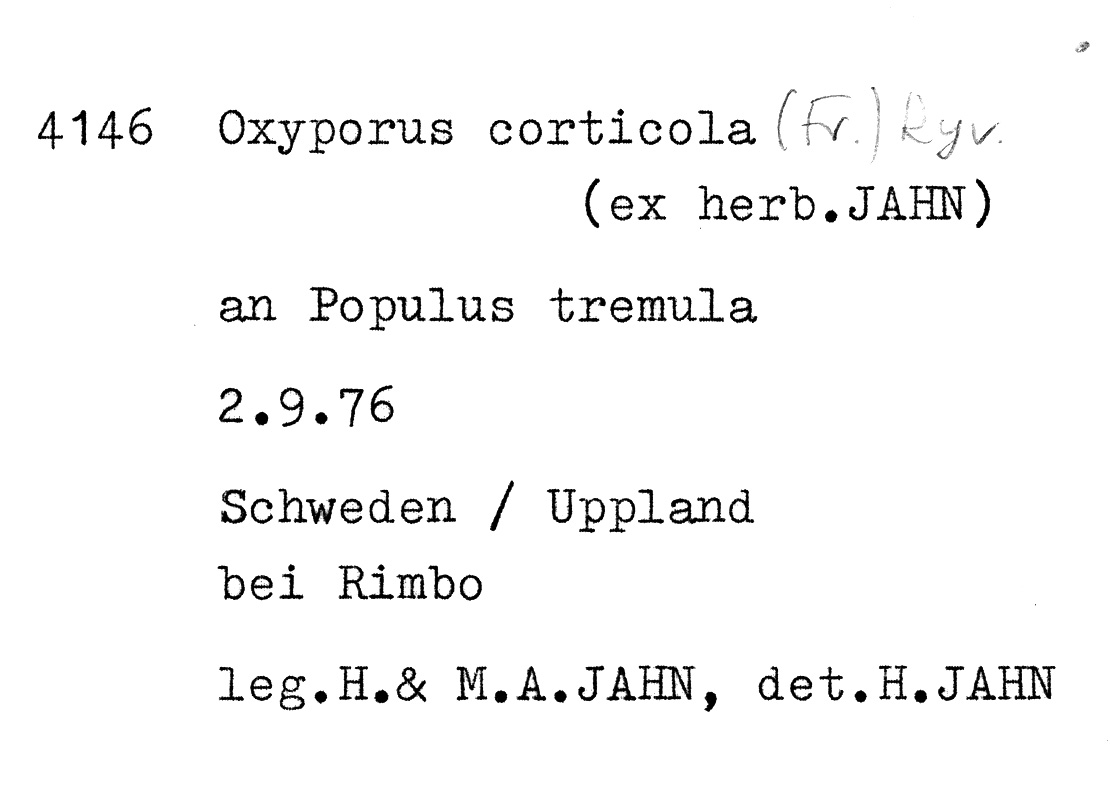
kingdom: Fungi
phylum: Basidiomycota
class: Agaricomycetes
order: Hymenochaetales
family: Oxyporaceae
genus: Oxyporus
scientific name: Oxyporus corticola
